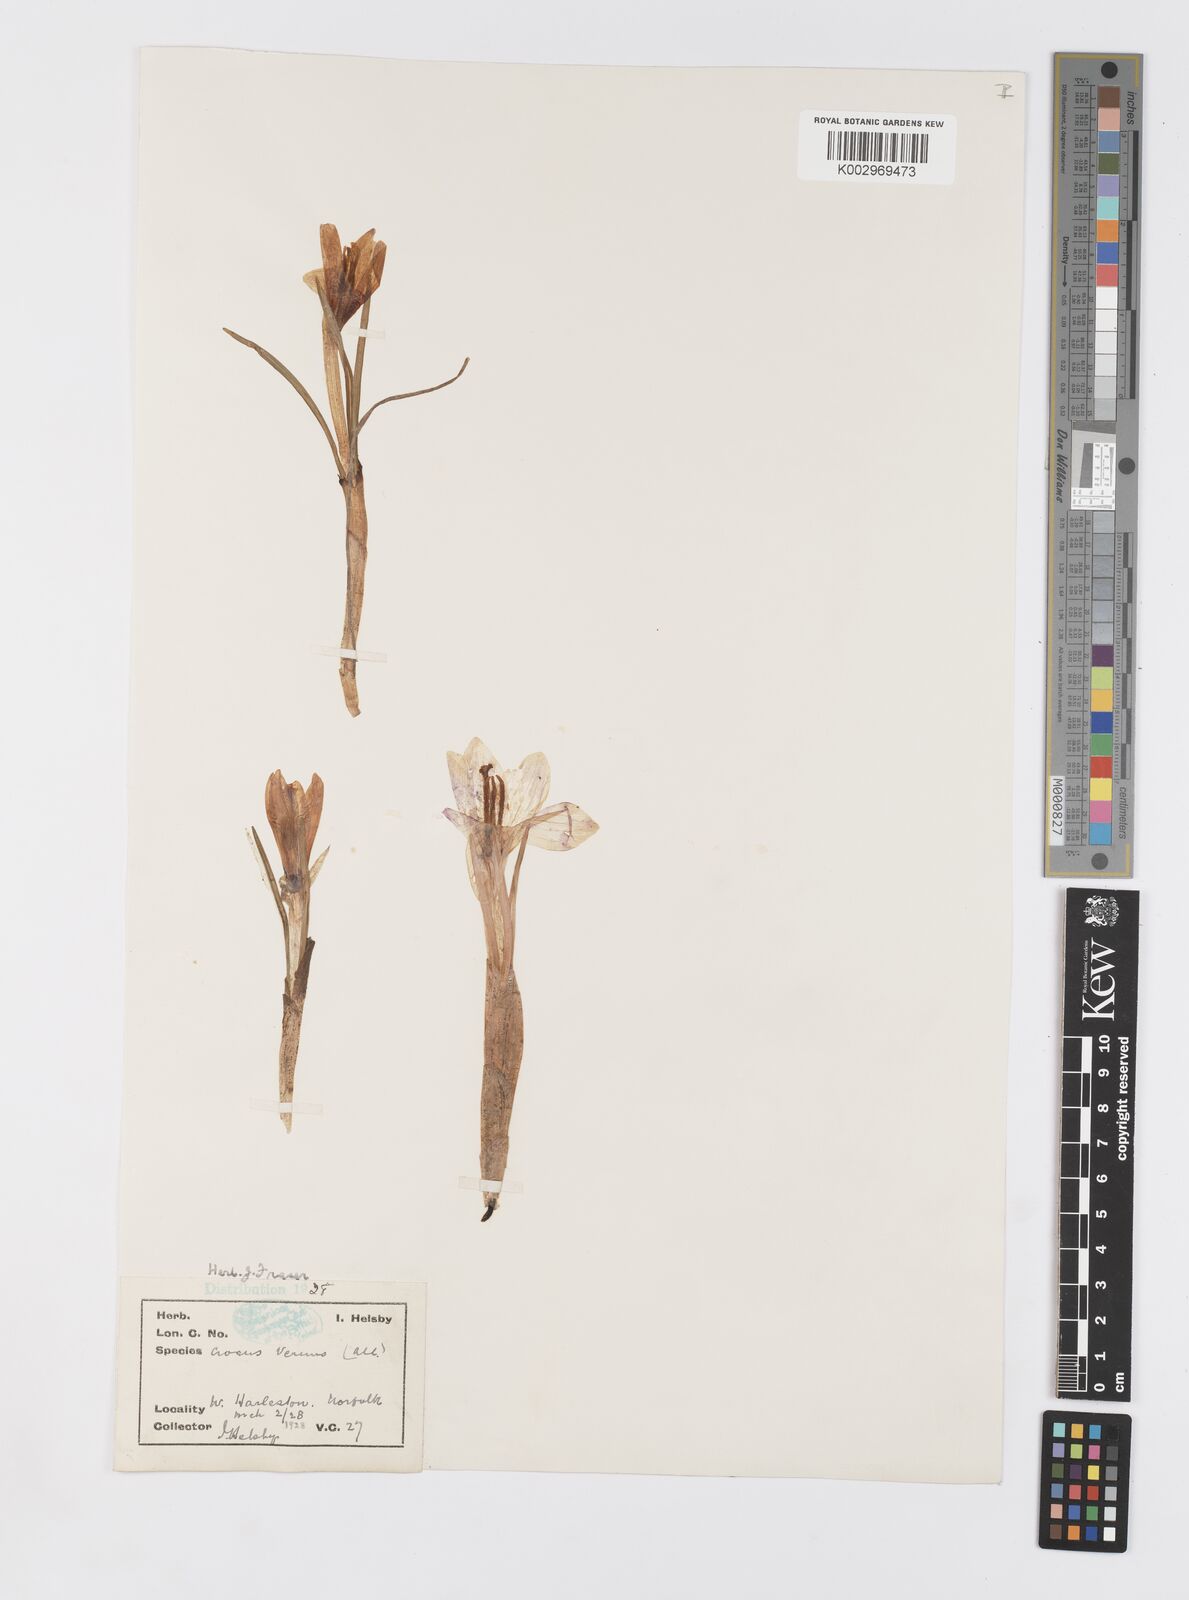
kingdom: Plantae
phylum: Tracheophyta
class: Liliopsida
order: Asparagales
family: Iridaceae
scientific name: Iridaceae
